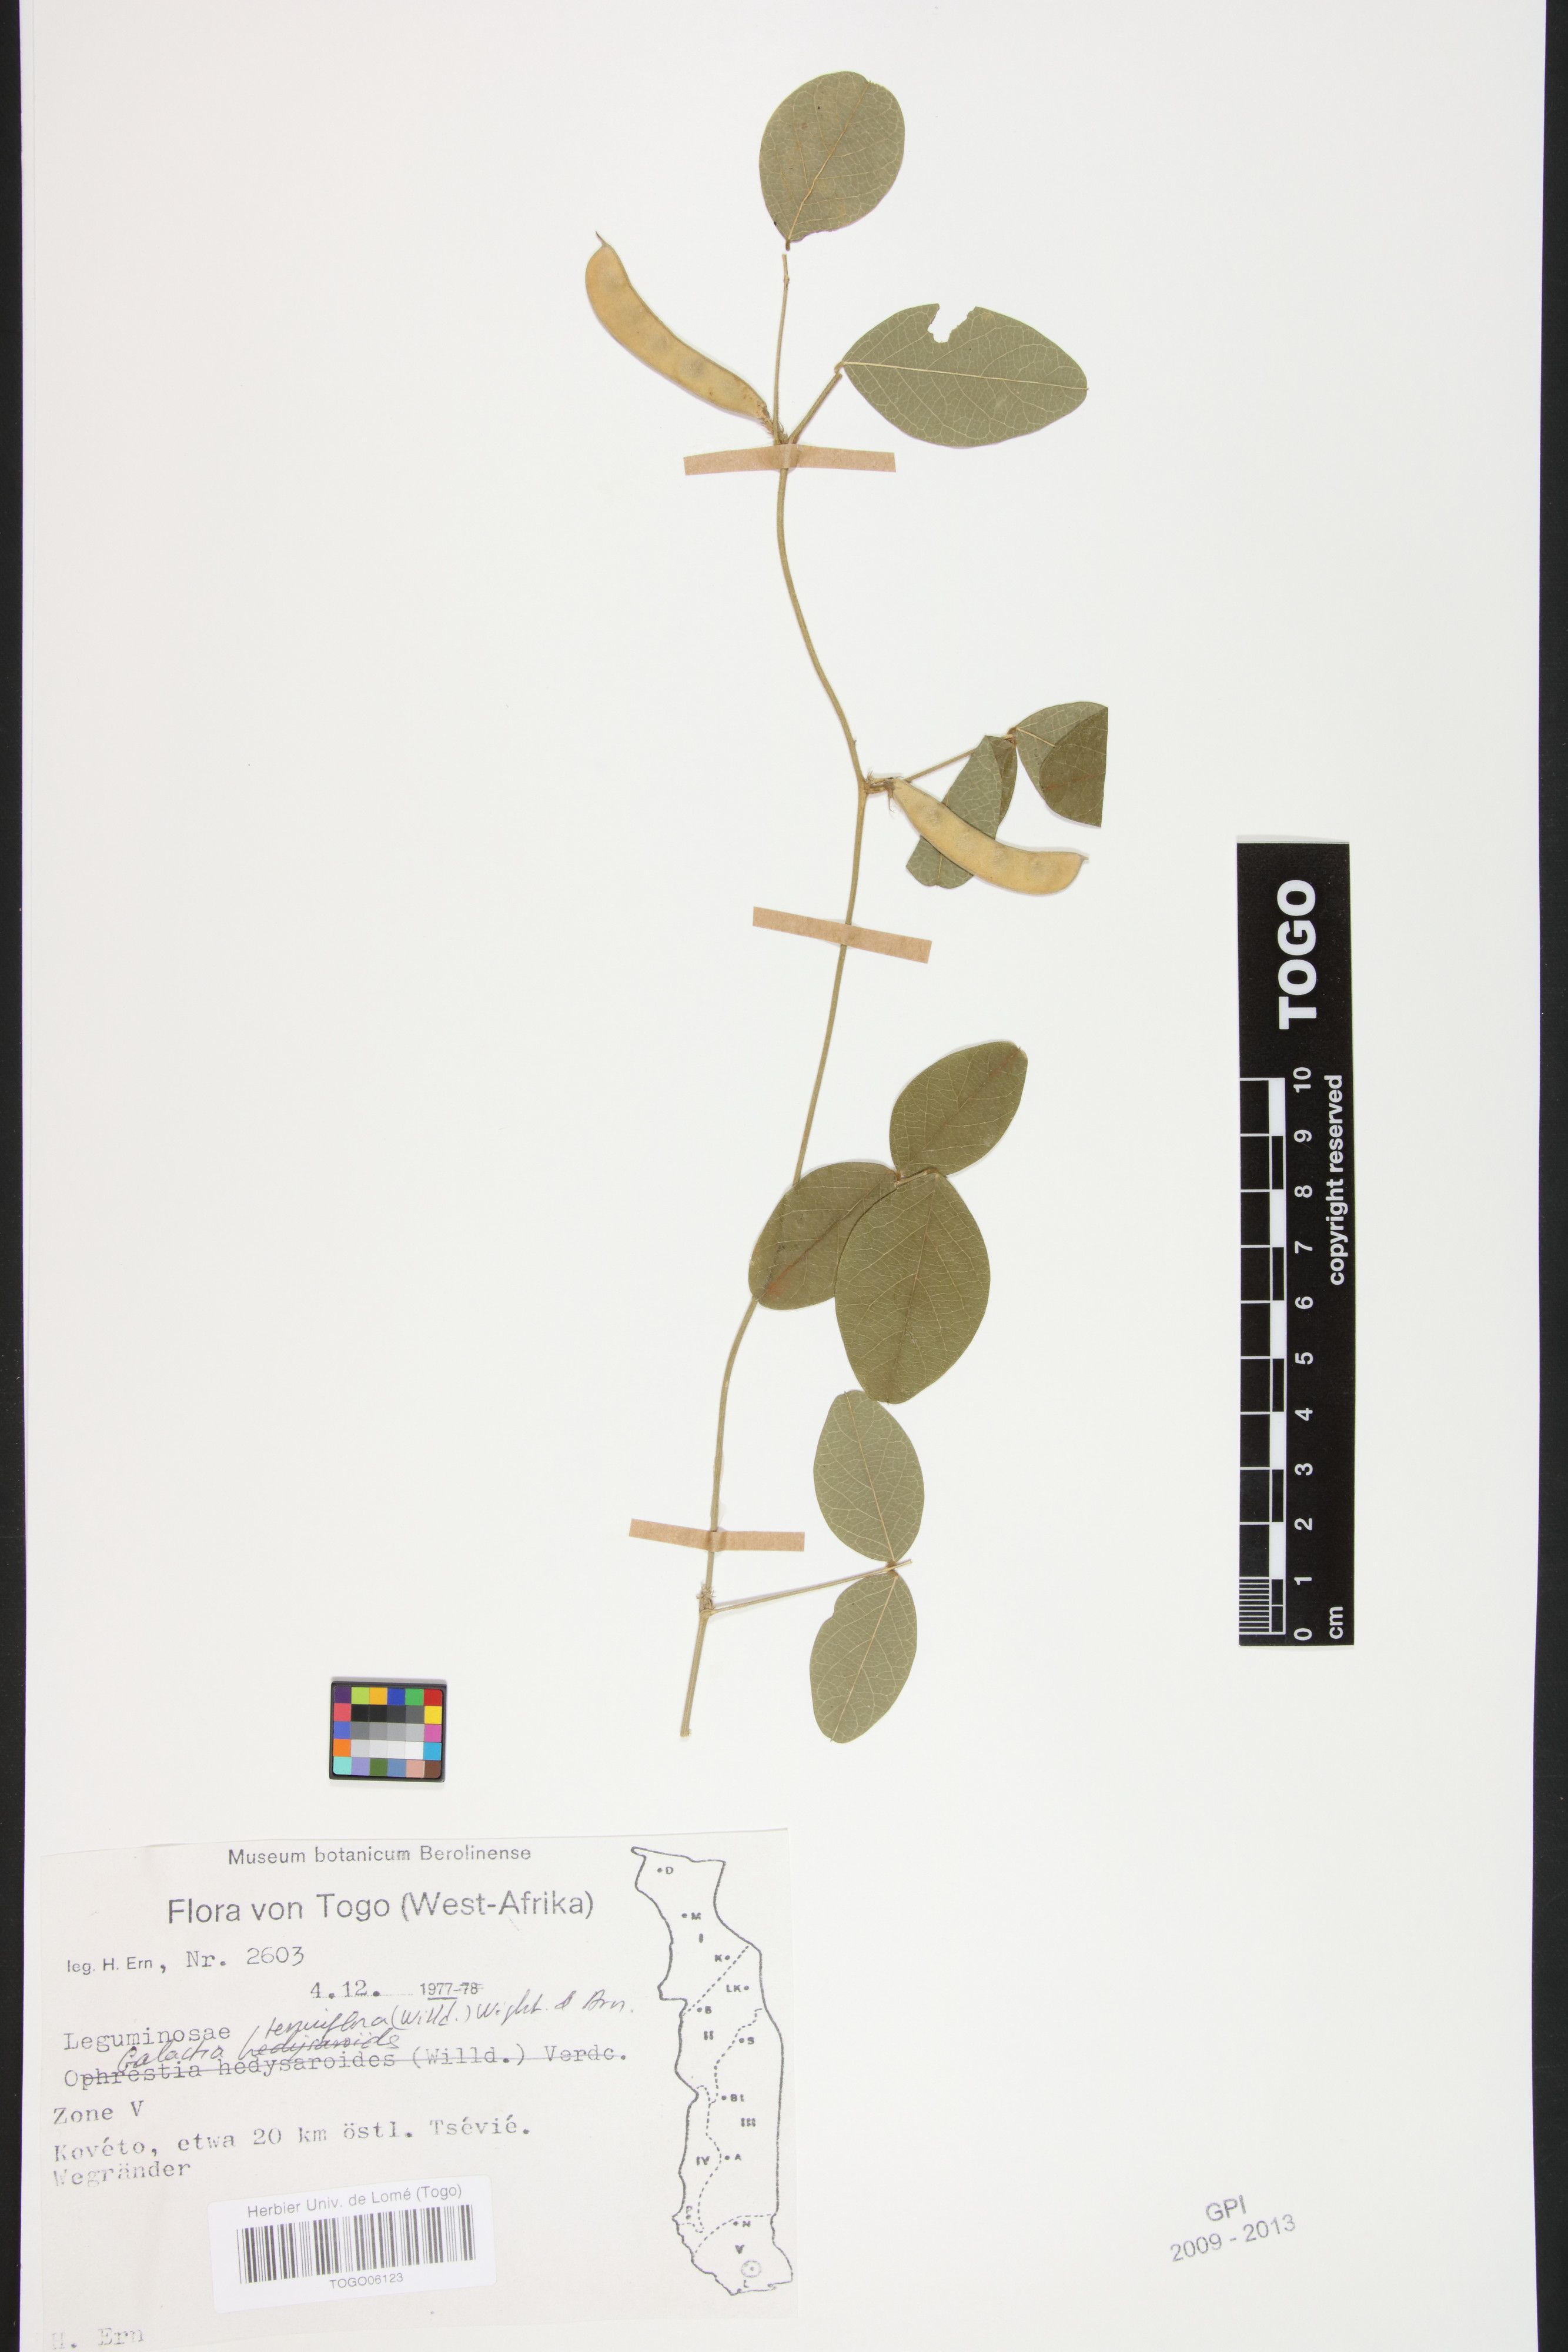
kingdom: Plantae
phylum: Tracheophyta
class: Magnoliopsida
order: Fabales
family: Fabaceae
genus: Galactia
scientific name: Galactia striata
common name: Florida hammock milkpea
